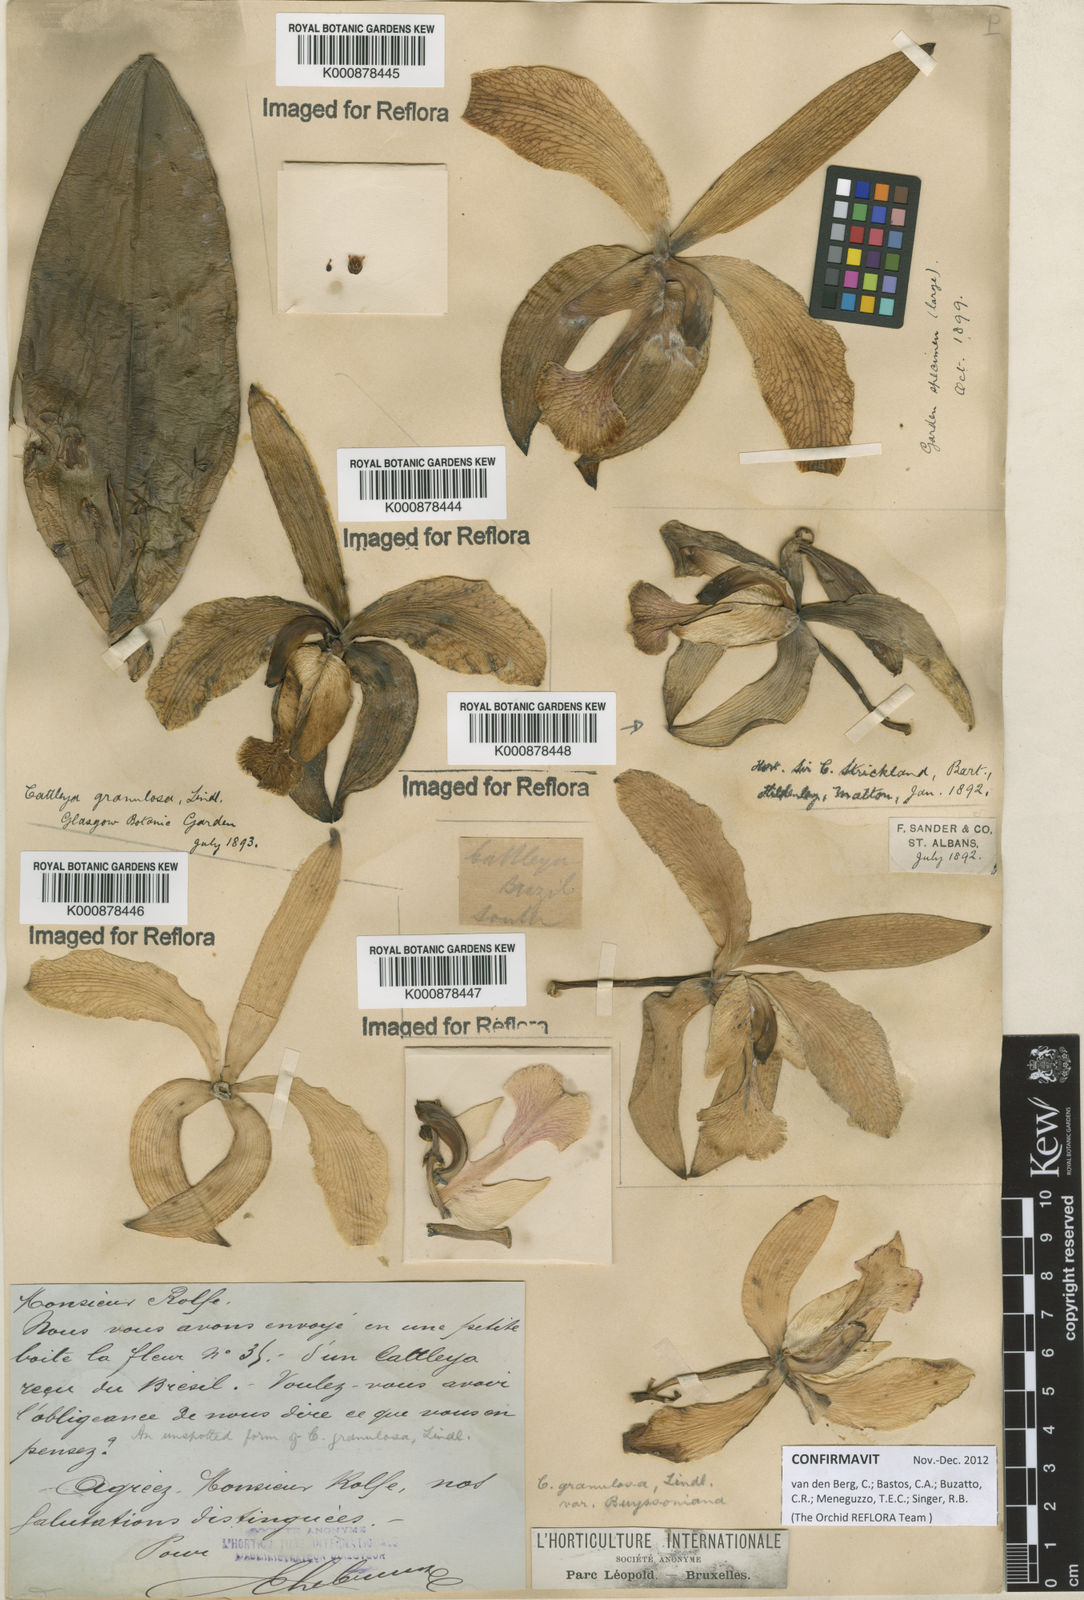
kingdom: Plantae
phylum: Tracheophyta
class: Liliopsida
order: Asparagales
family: Orchidaceae
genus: Cattleya
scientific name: Cattleya granulosa
